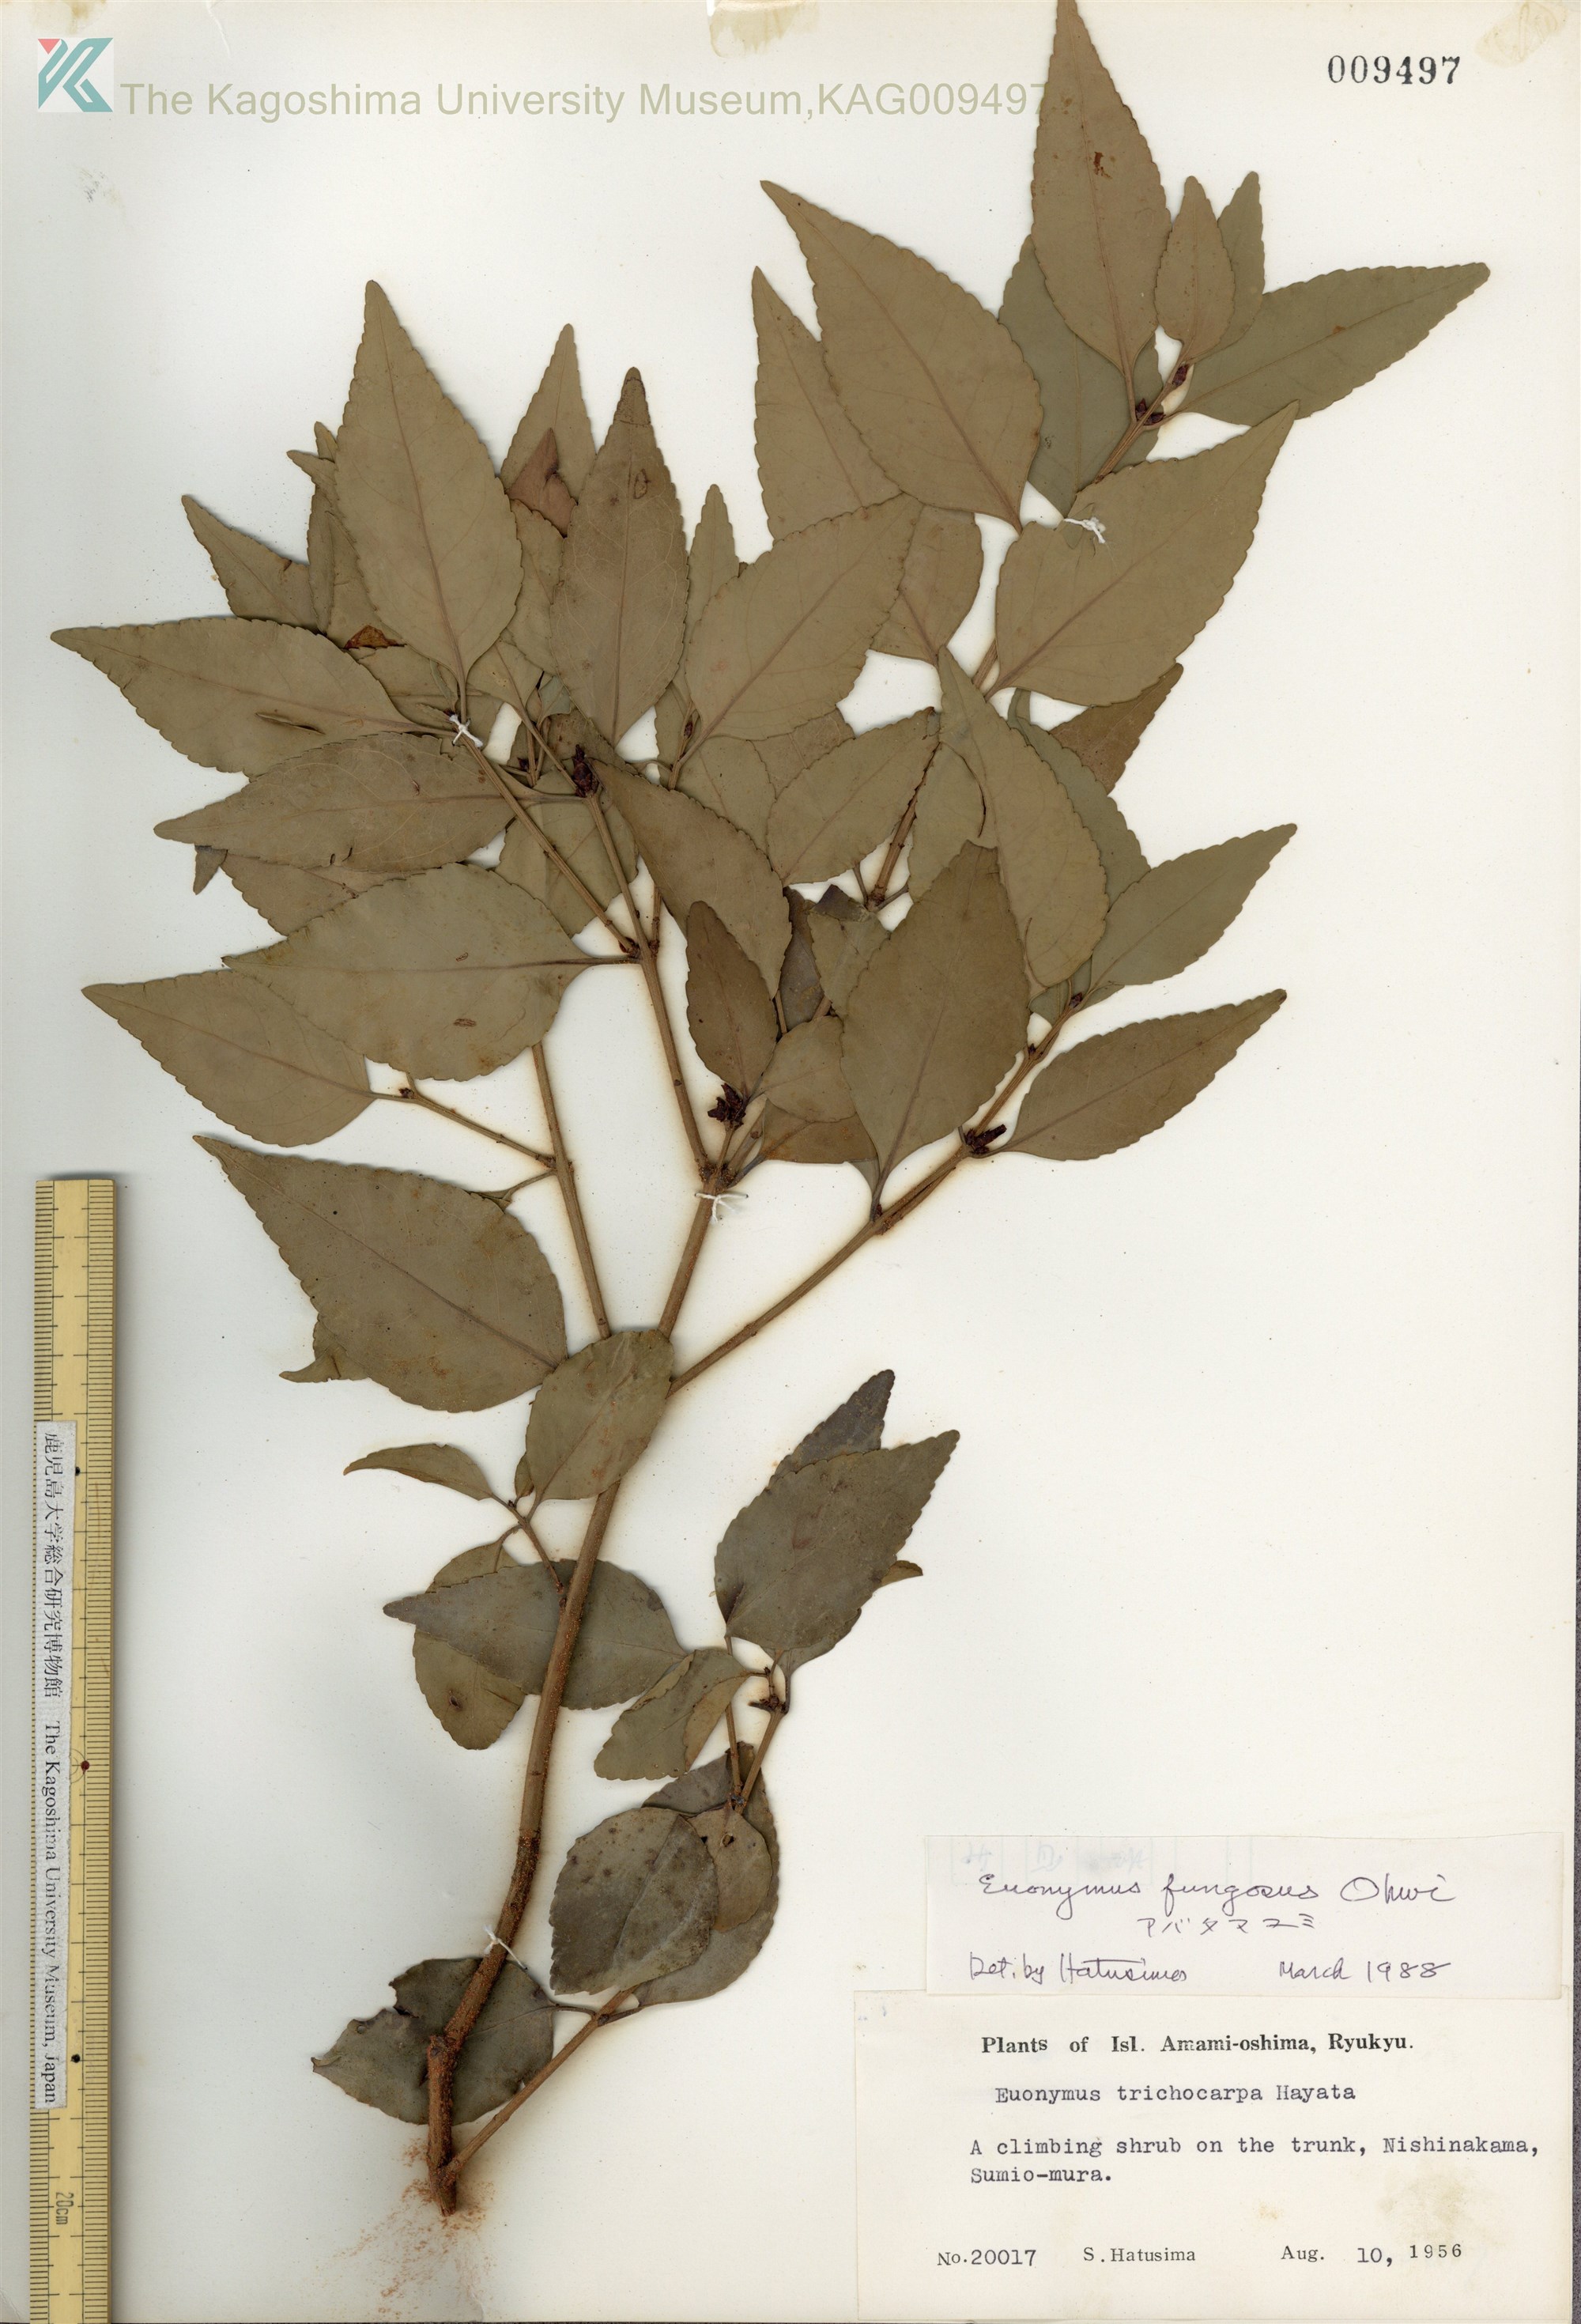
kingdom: Plantae
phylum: Tracheophyta
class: Magnoliopsida
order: Celastrales
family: Celastraceae
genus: Euonymus
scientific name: Euonymus echinatus
